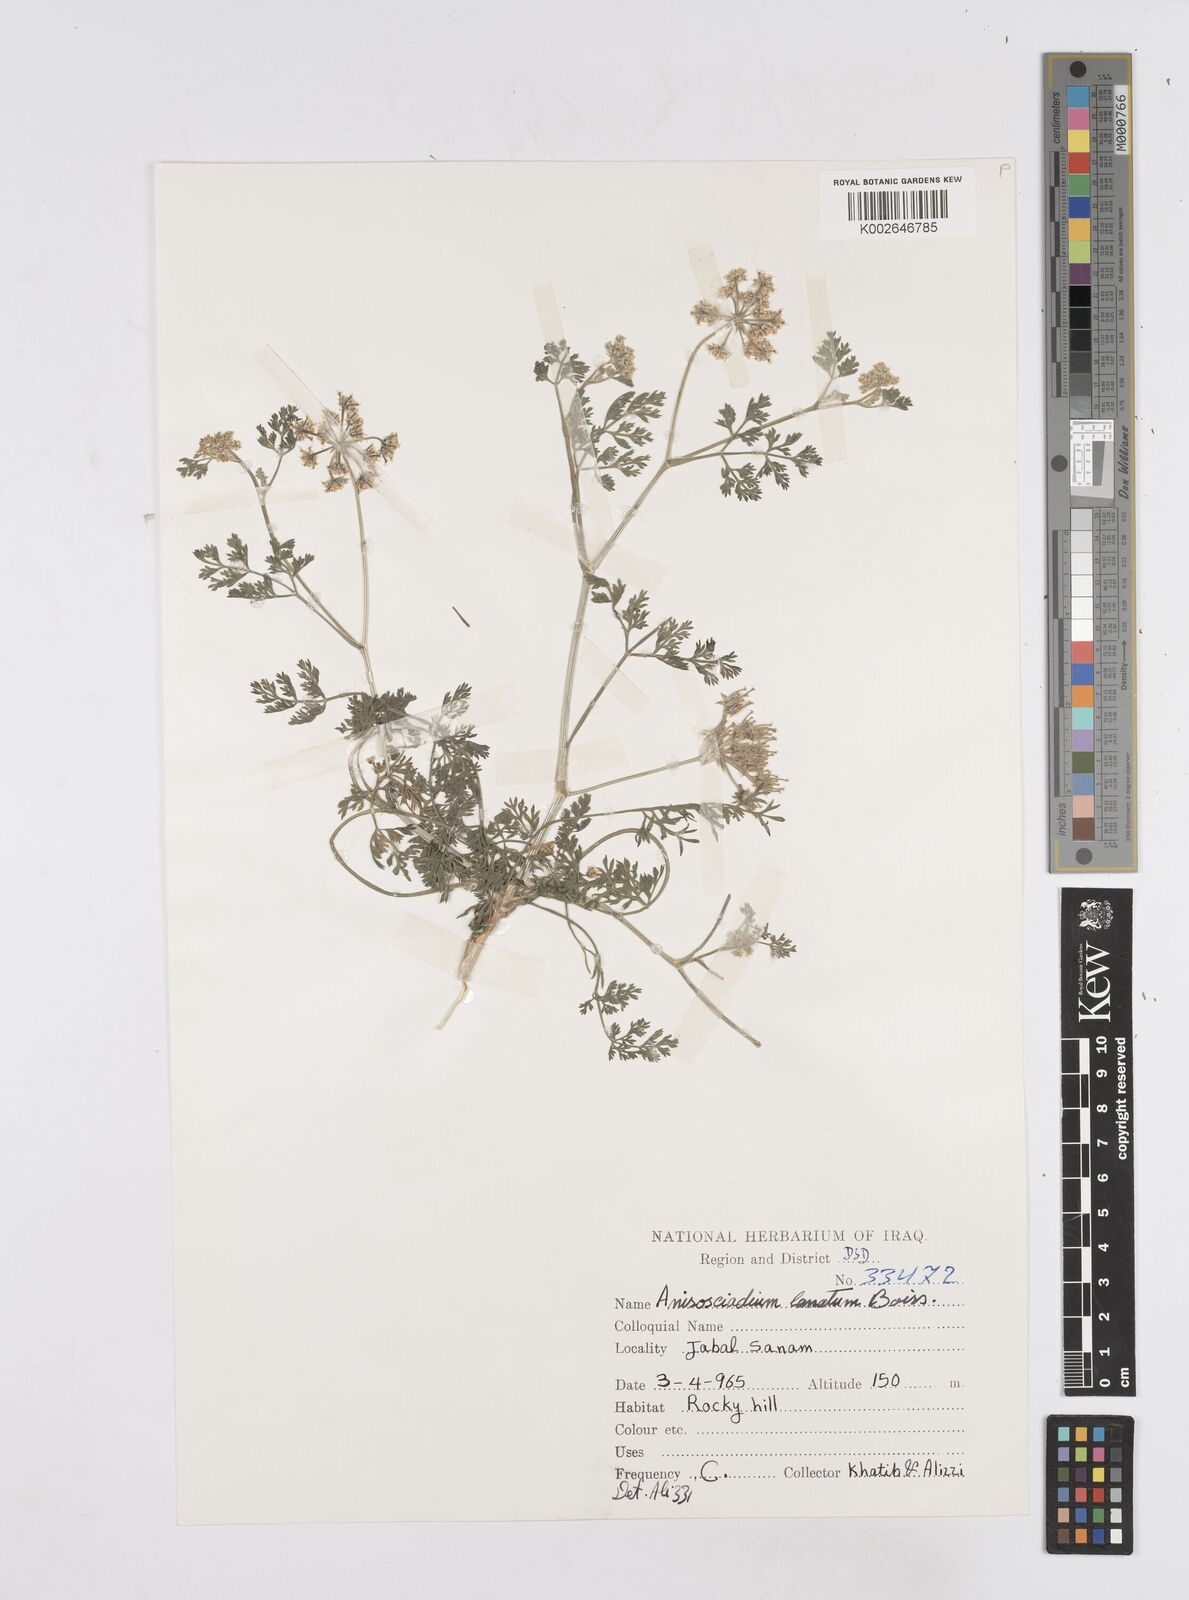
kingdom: Plantae
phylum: Tracheophyta
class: Magnoliopsida
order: Apiales
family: Apiaceae
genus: Anisosciadium
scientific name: Anisosciadium lanatum
